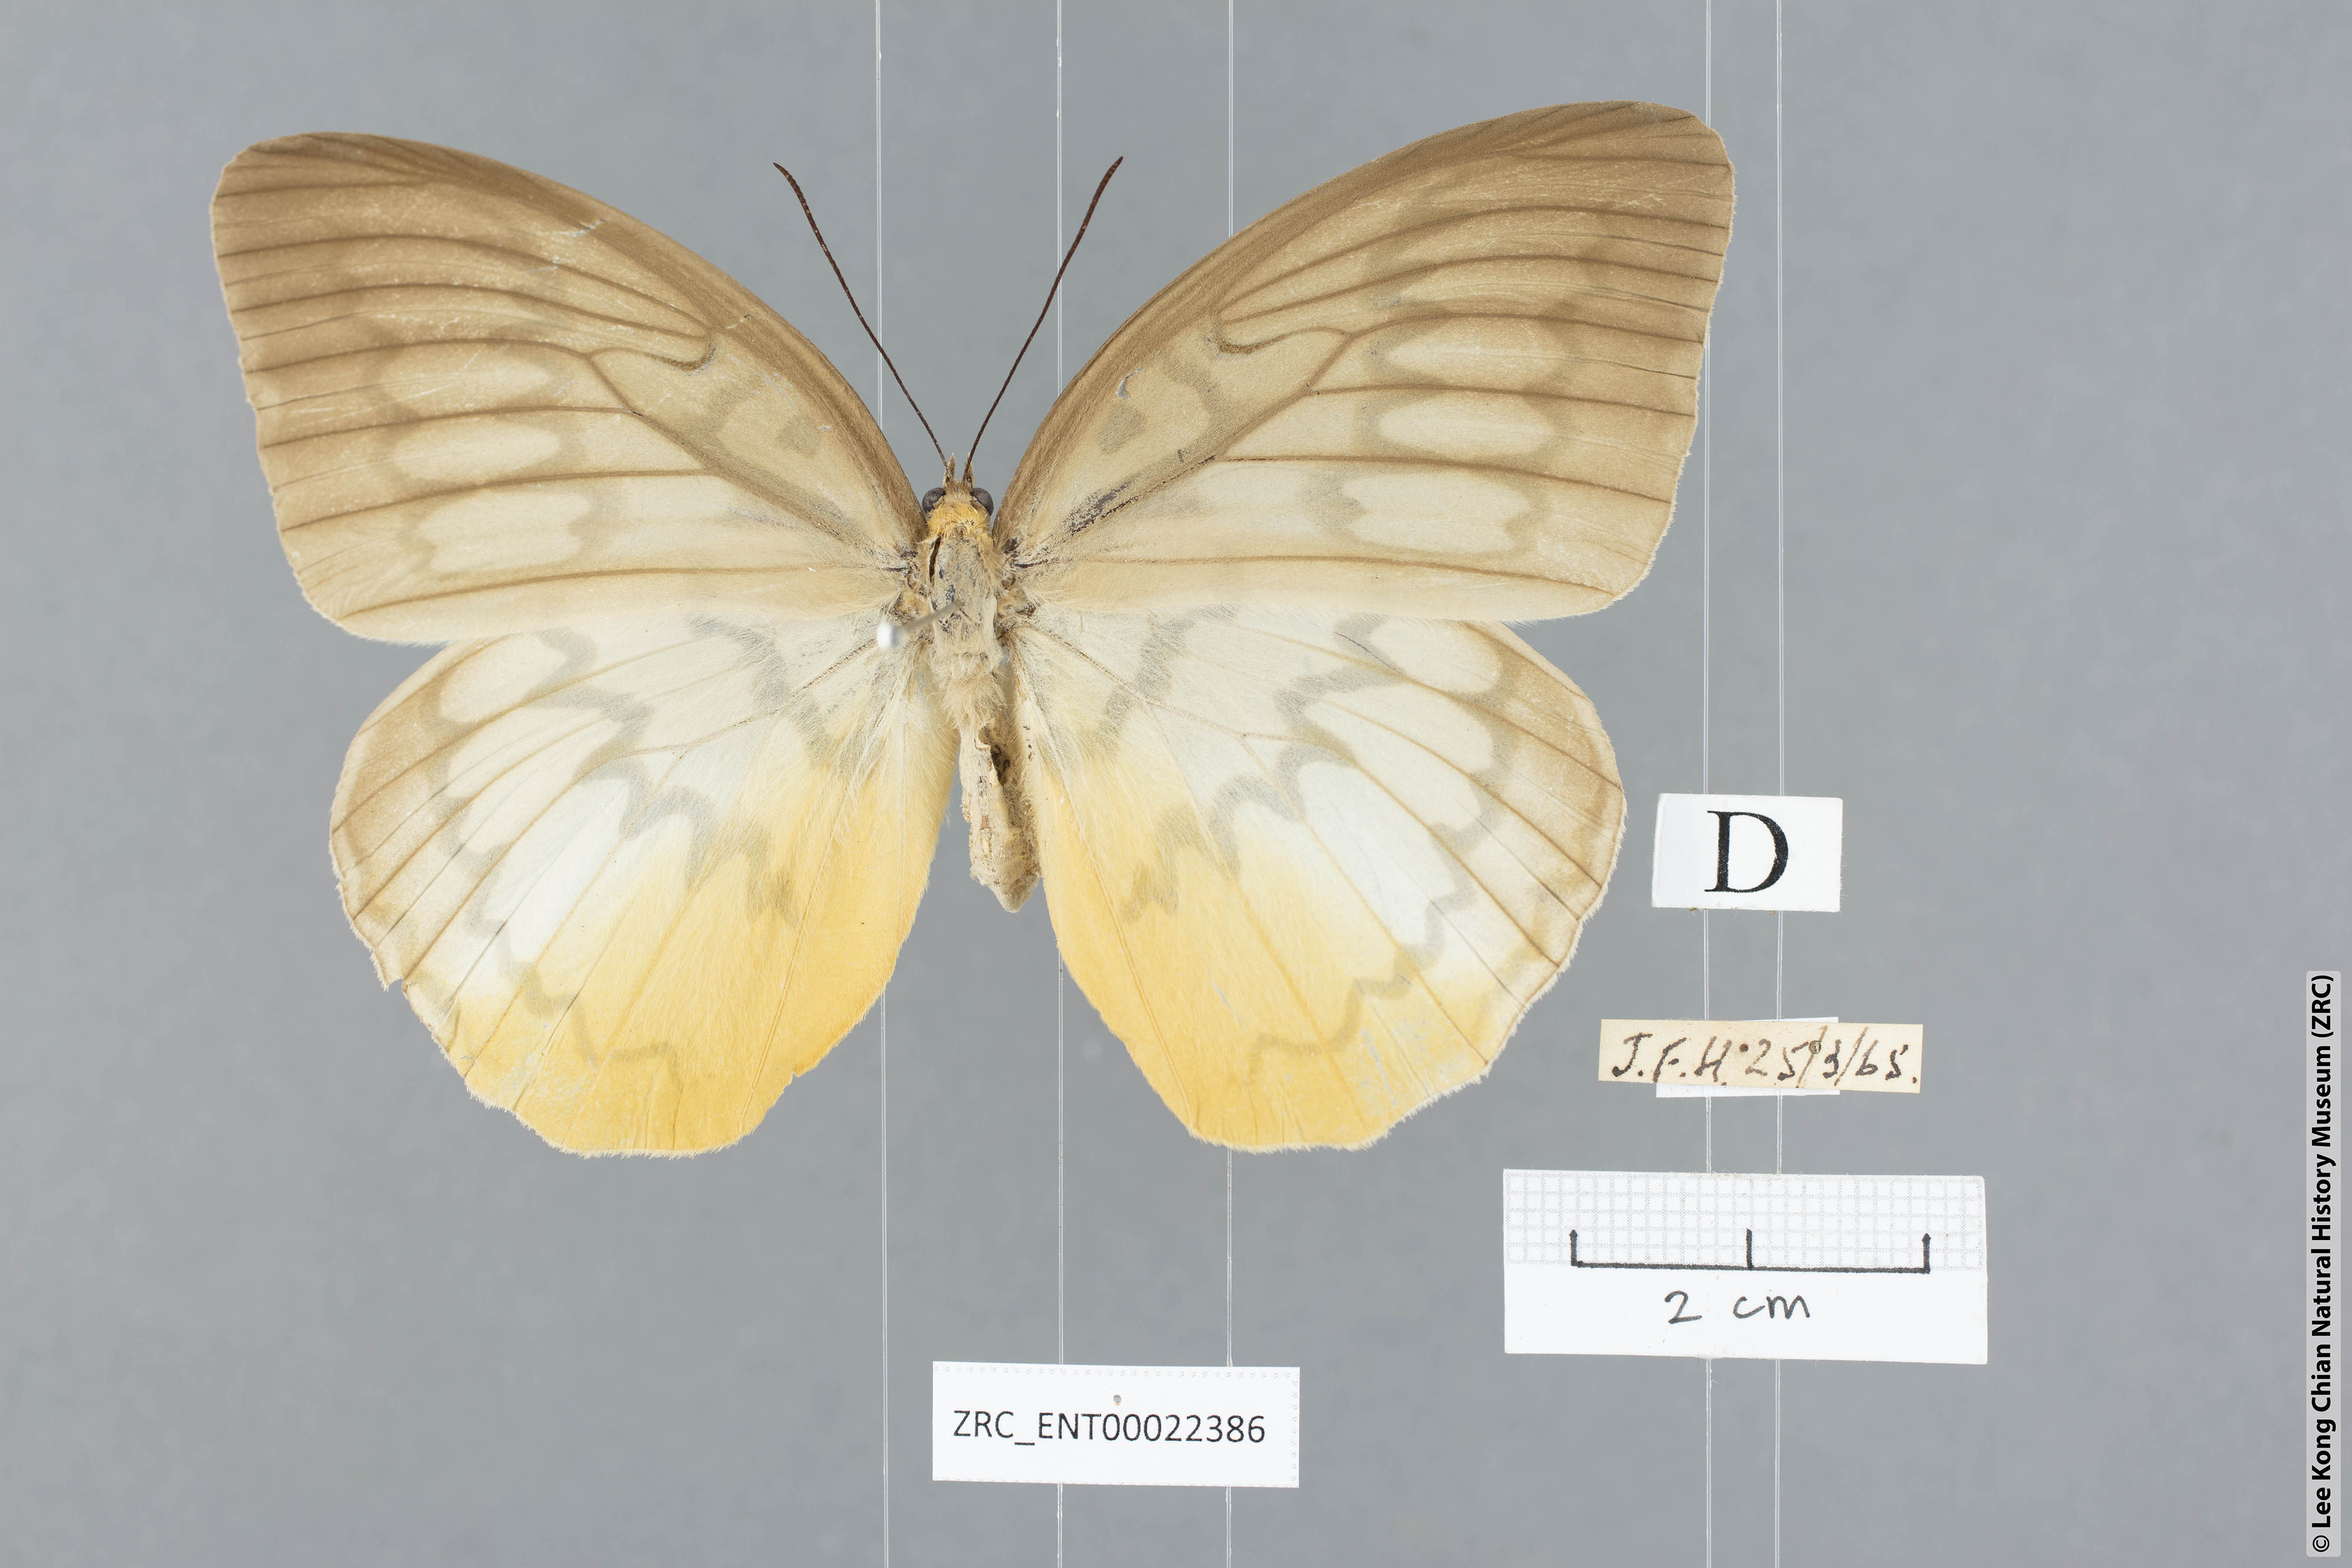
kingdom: Animalia
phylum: Arthropoda
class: Insecta
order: Lepidoptera
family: Nymphalidae
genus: Faunis
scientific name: Faunis Melanocyma faunula
